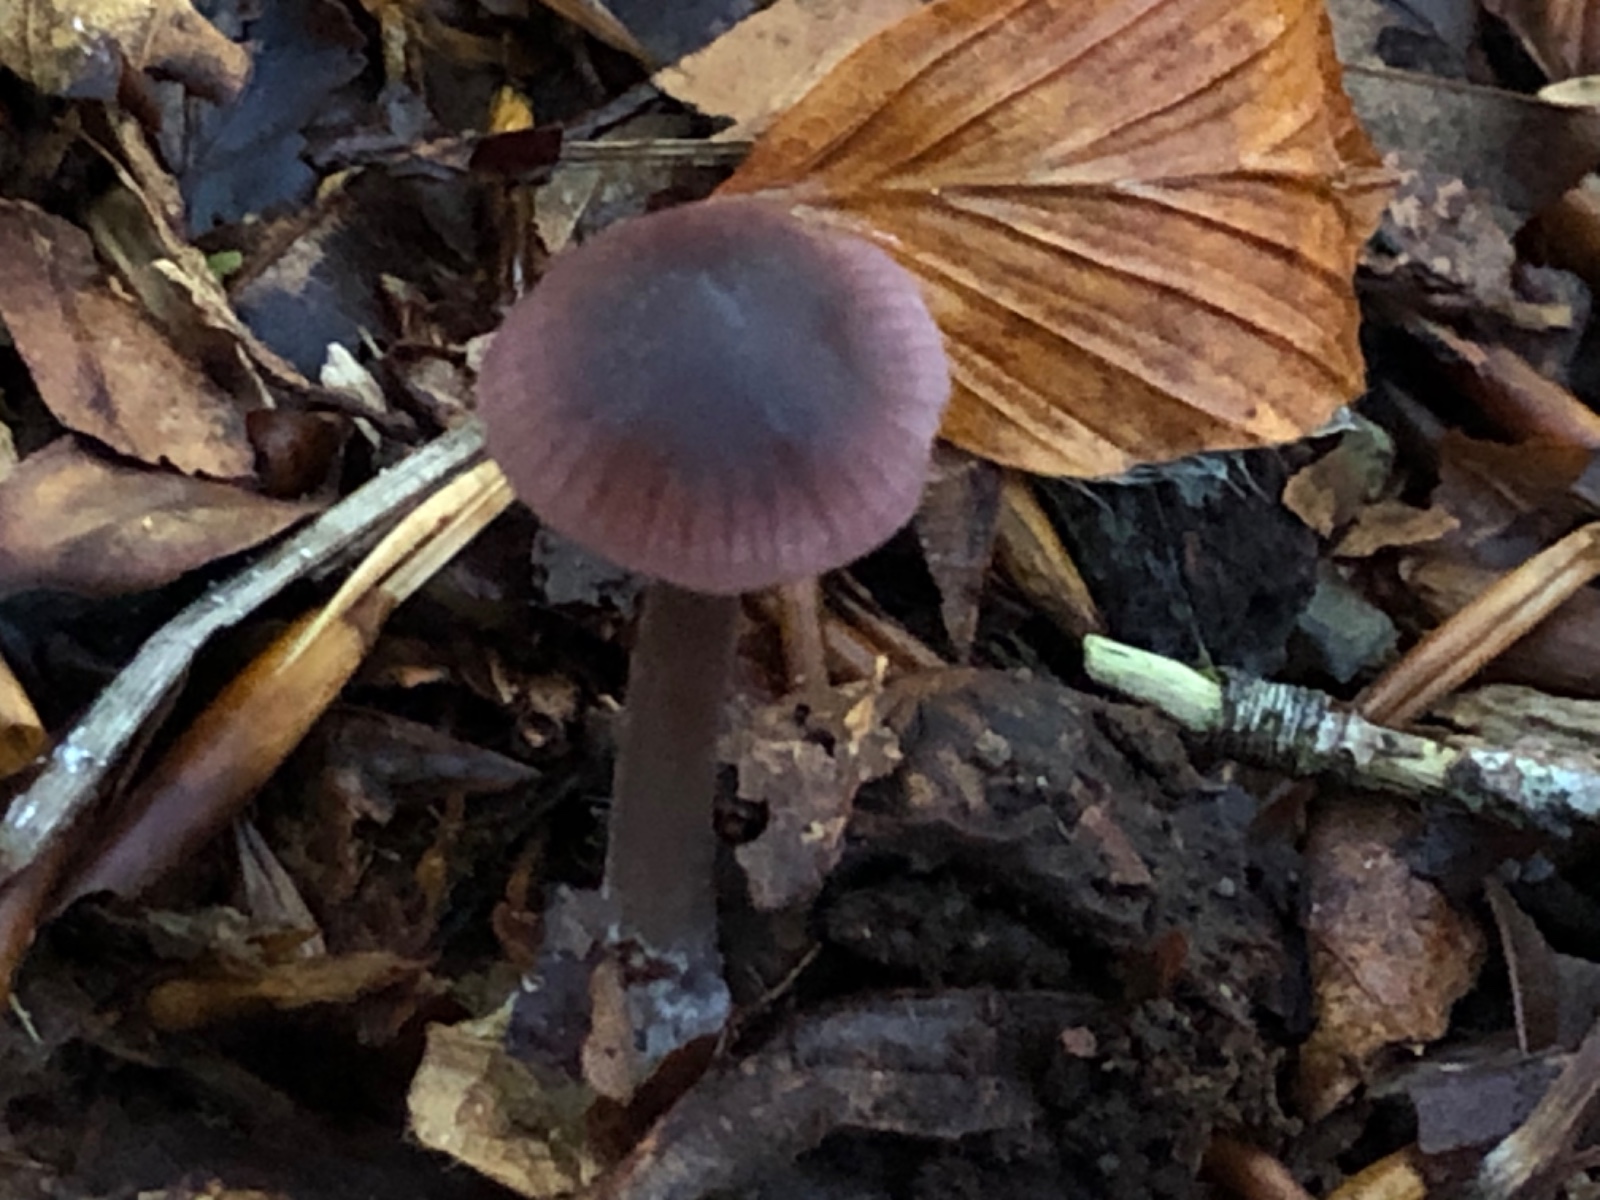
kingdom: Fungi
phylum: Basidiomycota
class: Agaricomycetes
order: Agaricales
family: Mycenaceae
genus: Mycena
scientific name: Mycena
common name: huesvamp
